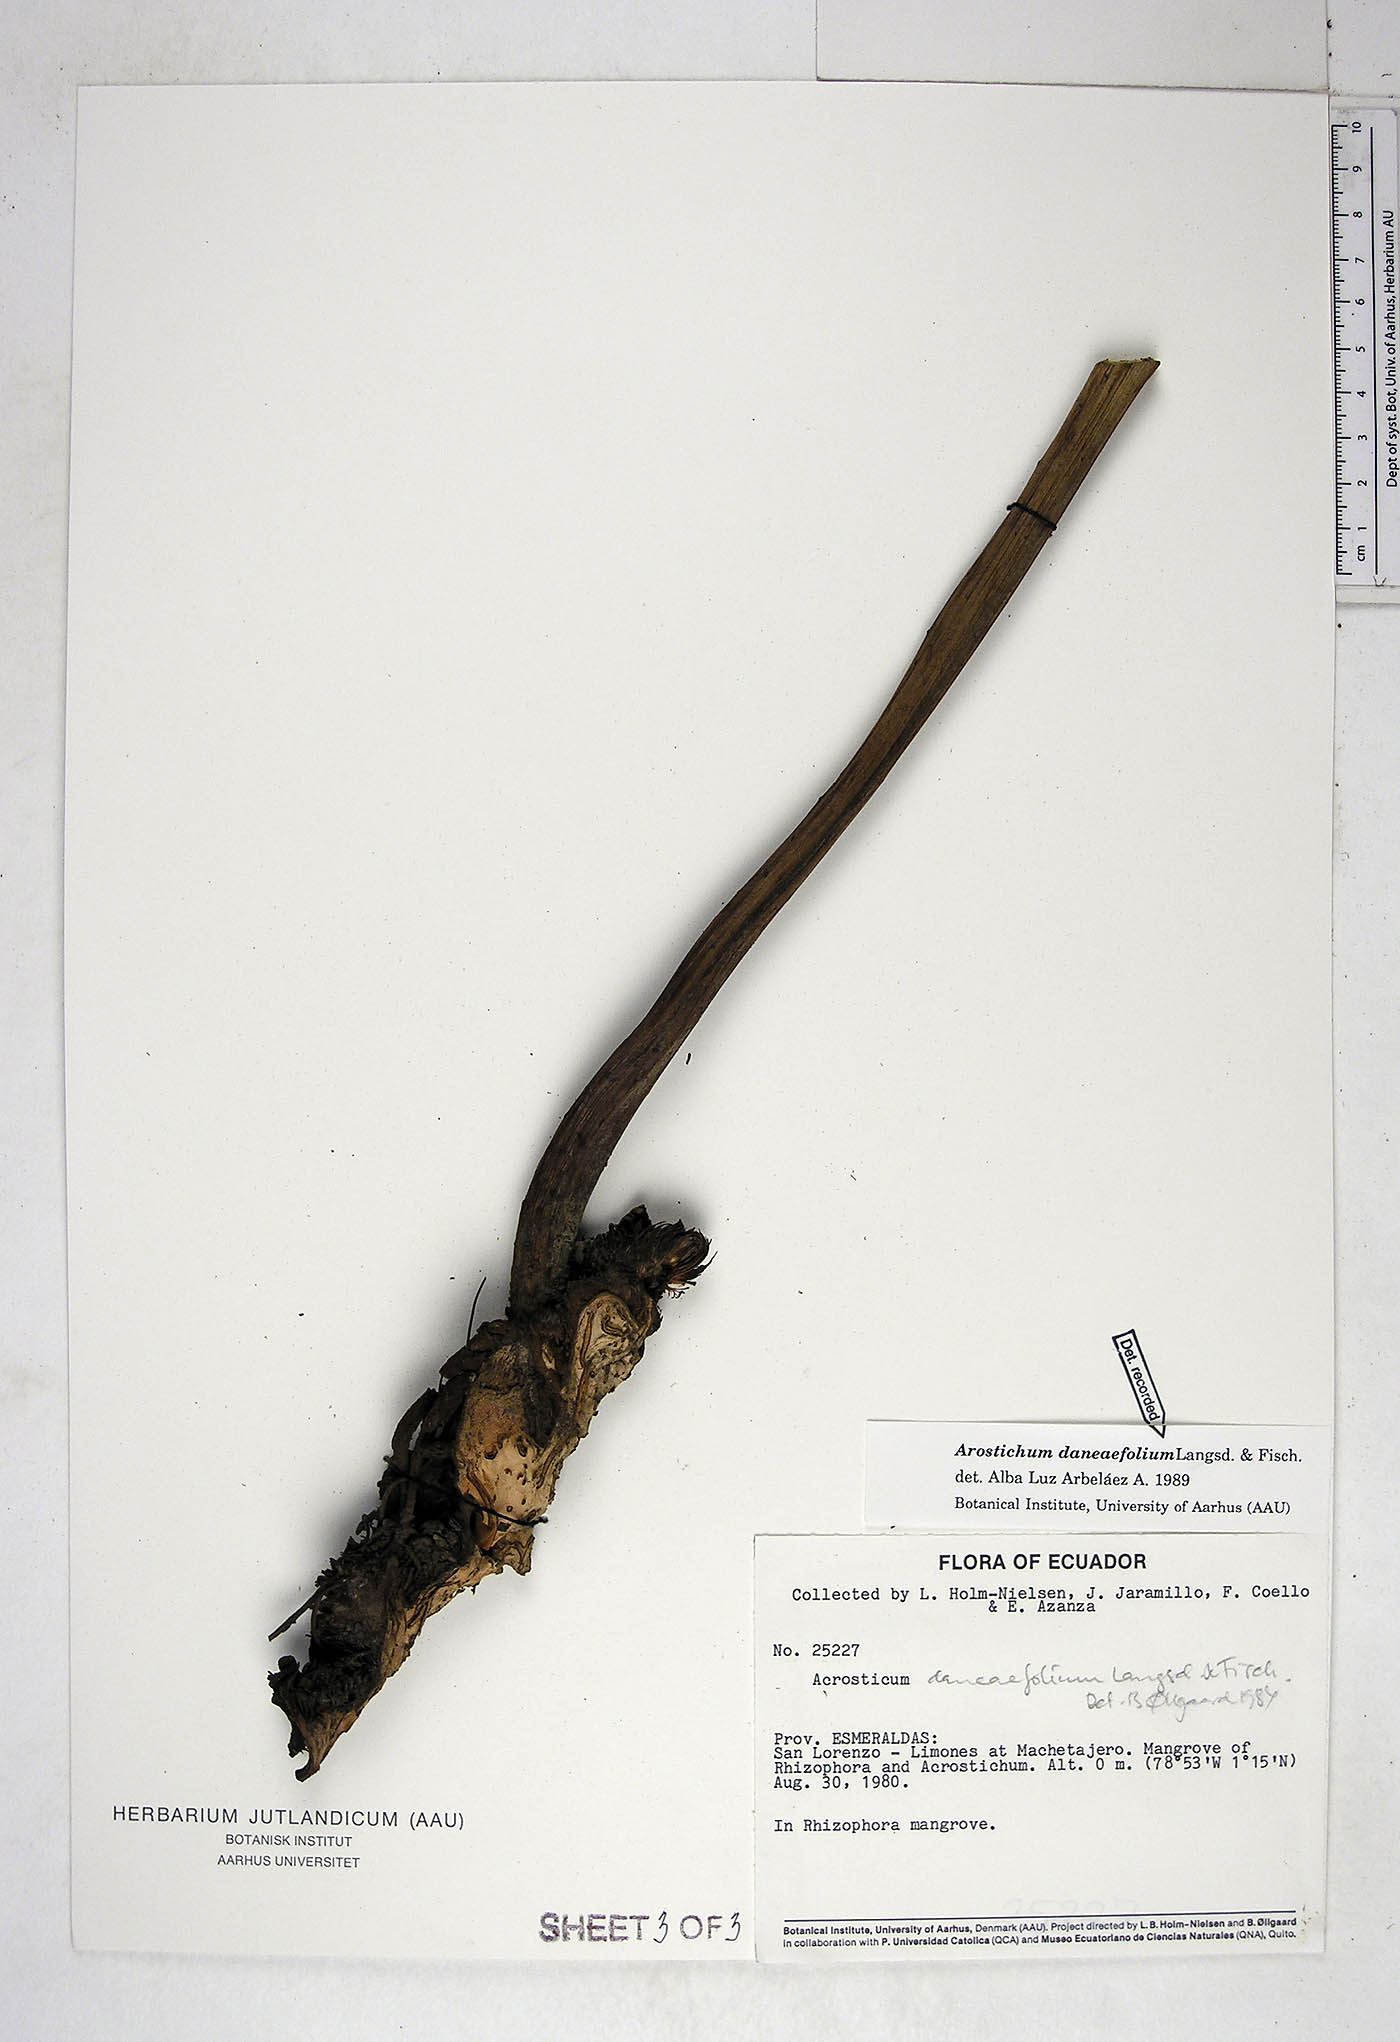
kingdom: Plantae
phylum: Tracheophyta
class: Polypodiopsida
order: Polypodiales
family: Pteridaceae
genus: Acrostichum
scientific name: Acrostichum daneaefolium
